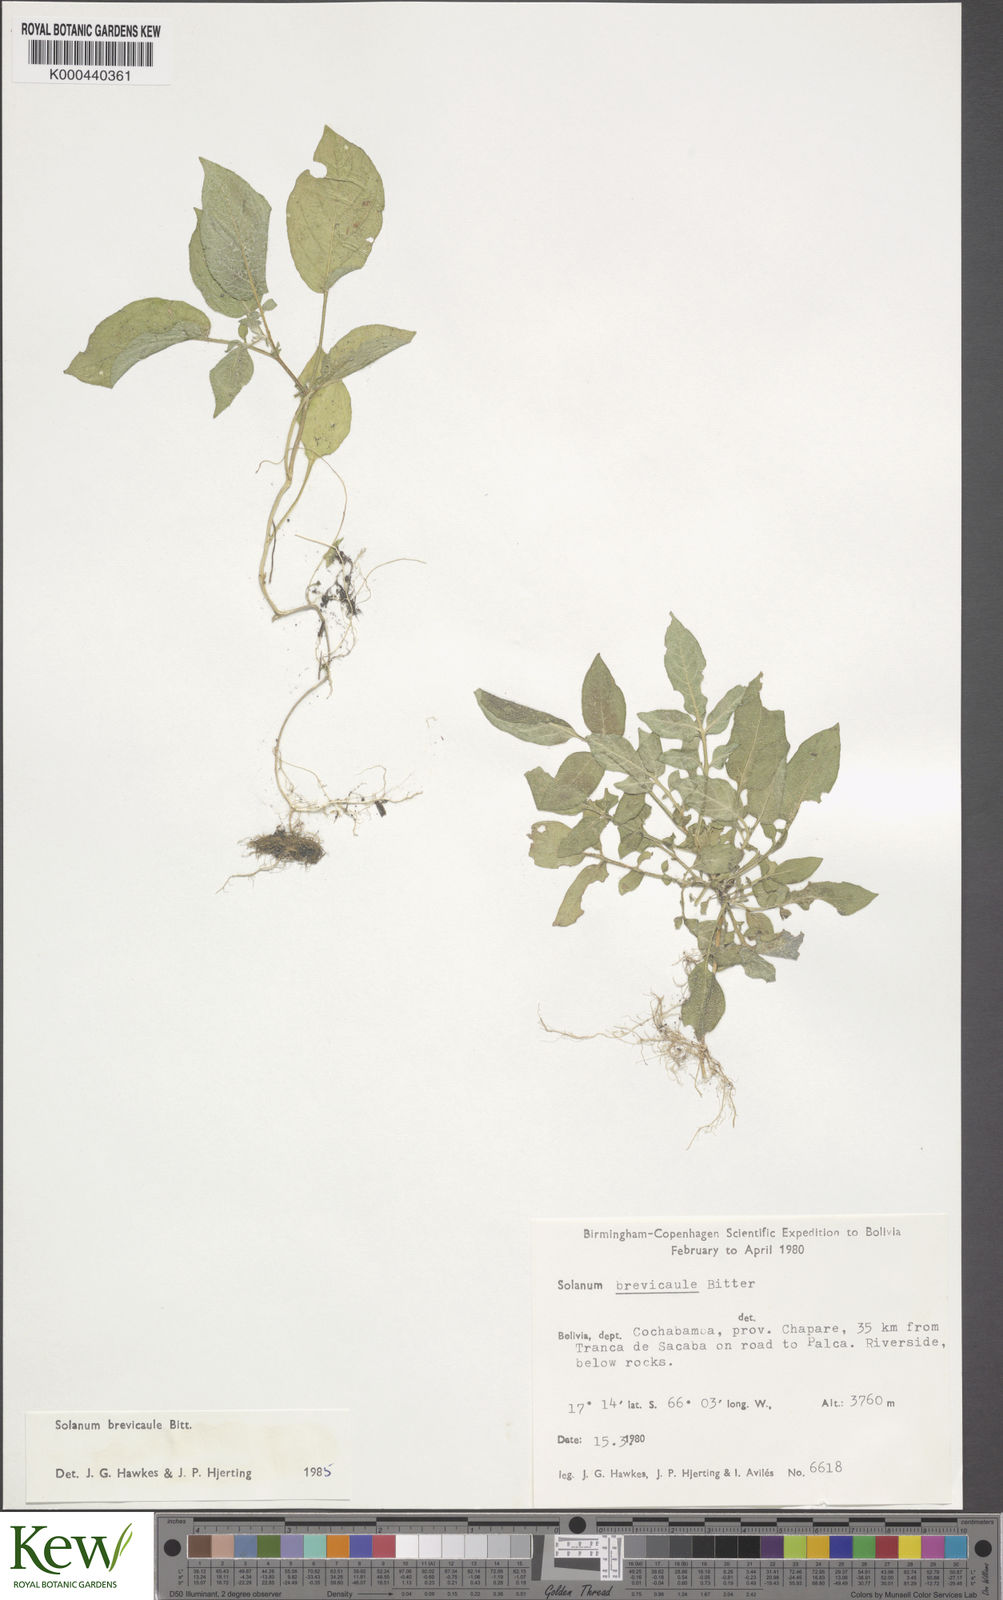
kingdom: Plantae
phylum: Tracheophyta
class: Magnoliopsida
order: Solanales
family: Solanaceae
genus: Solanum
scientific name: Solanum brevicaule
